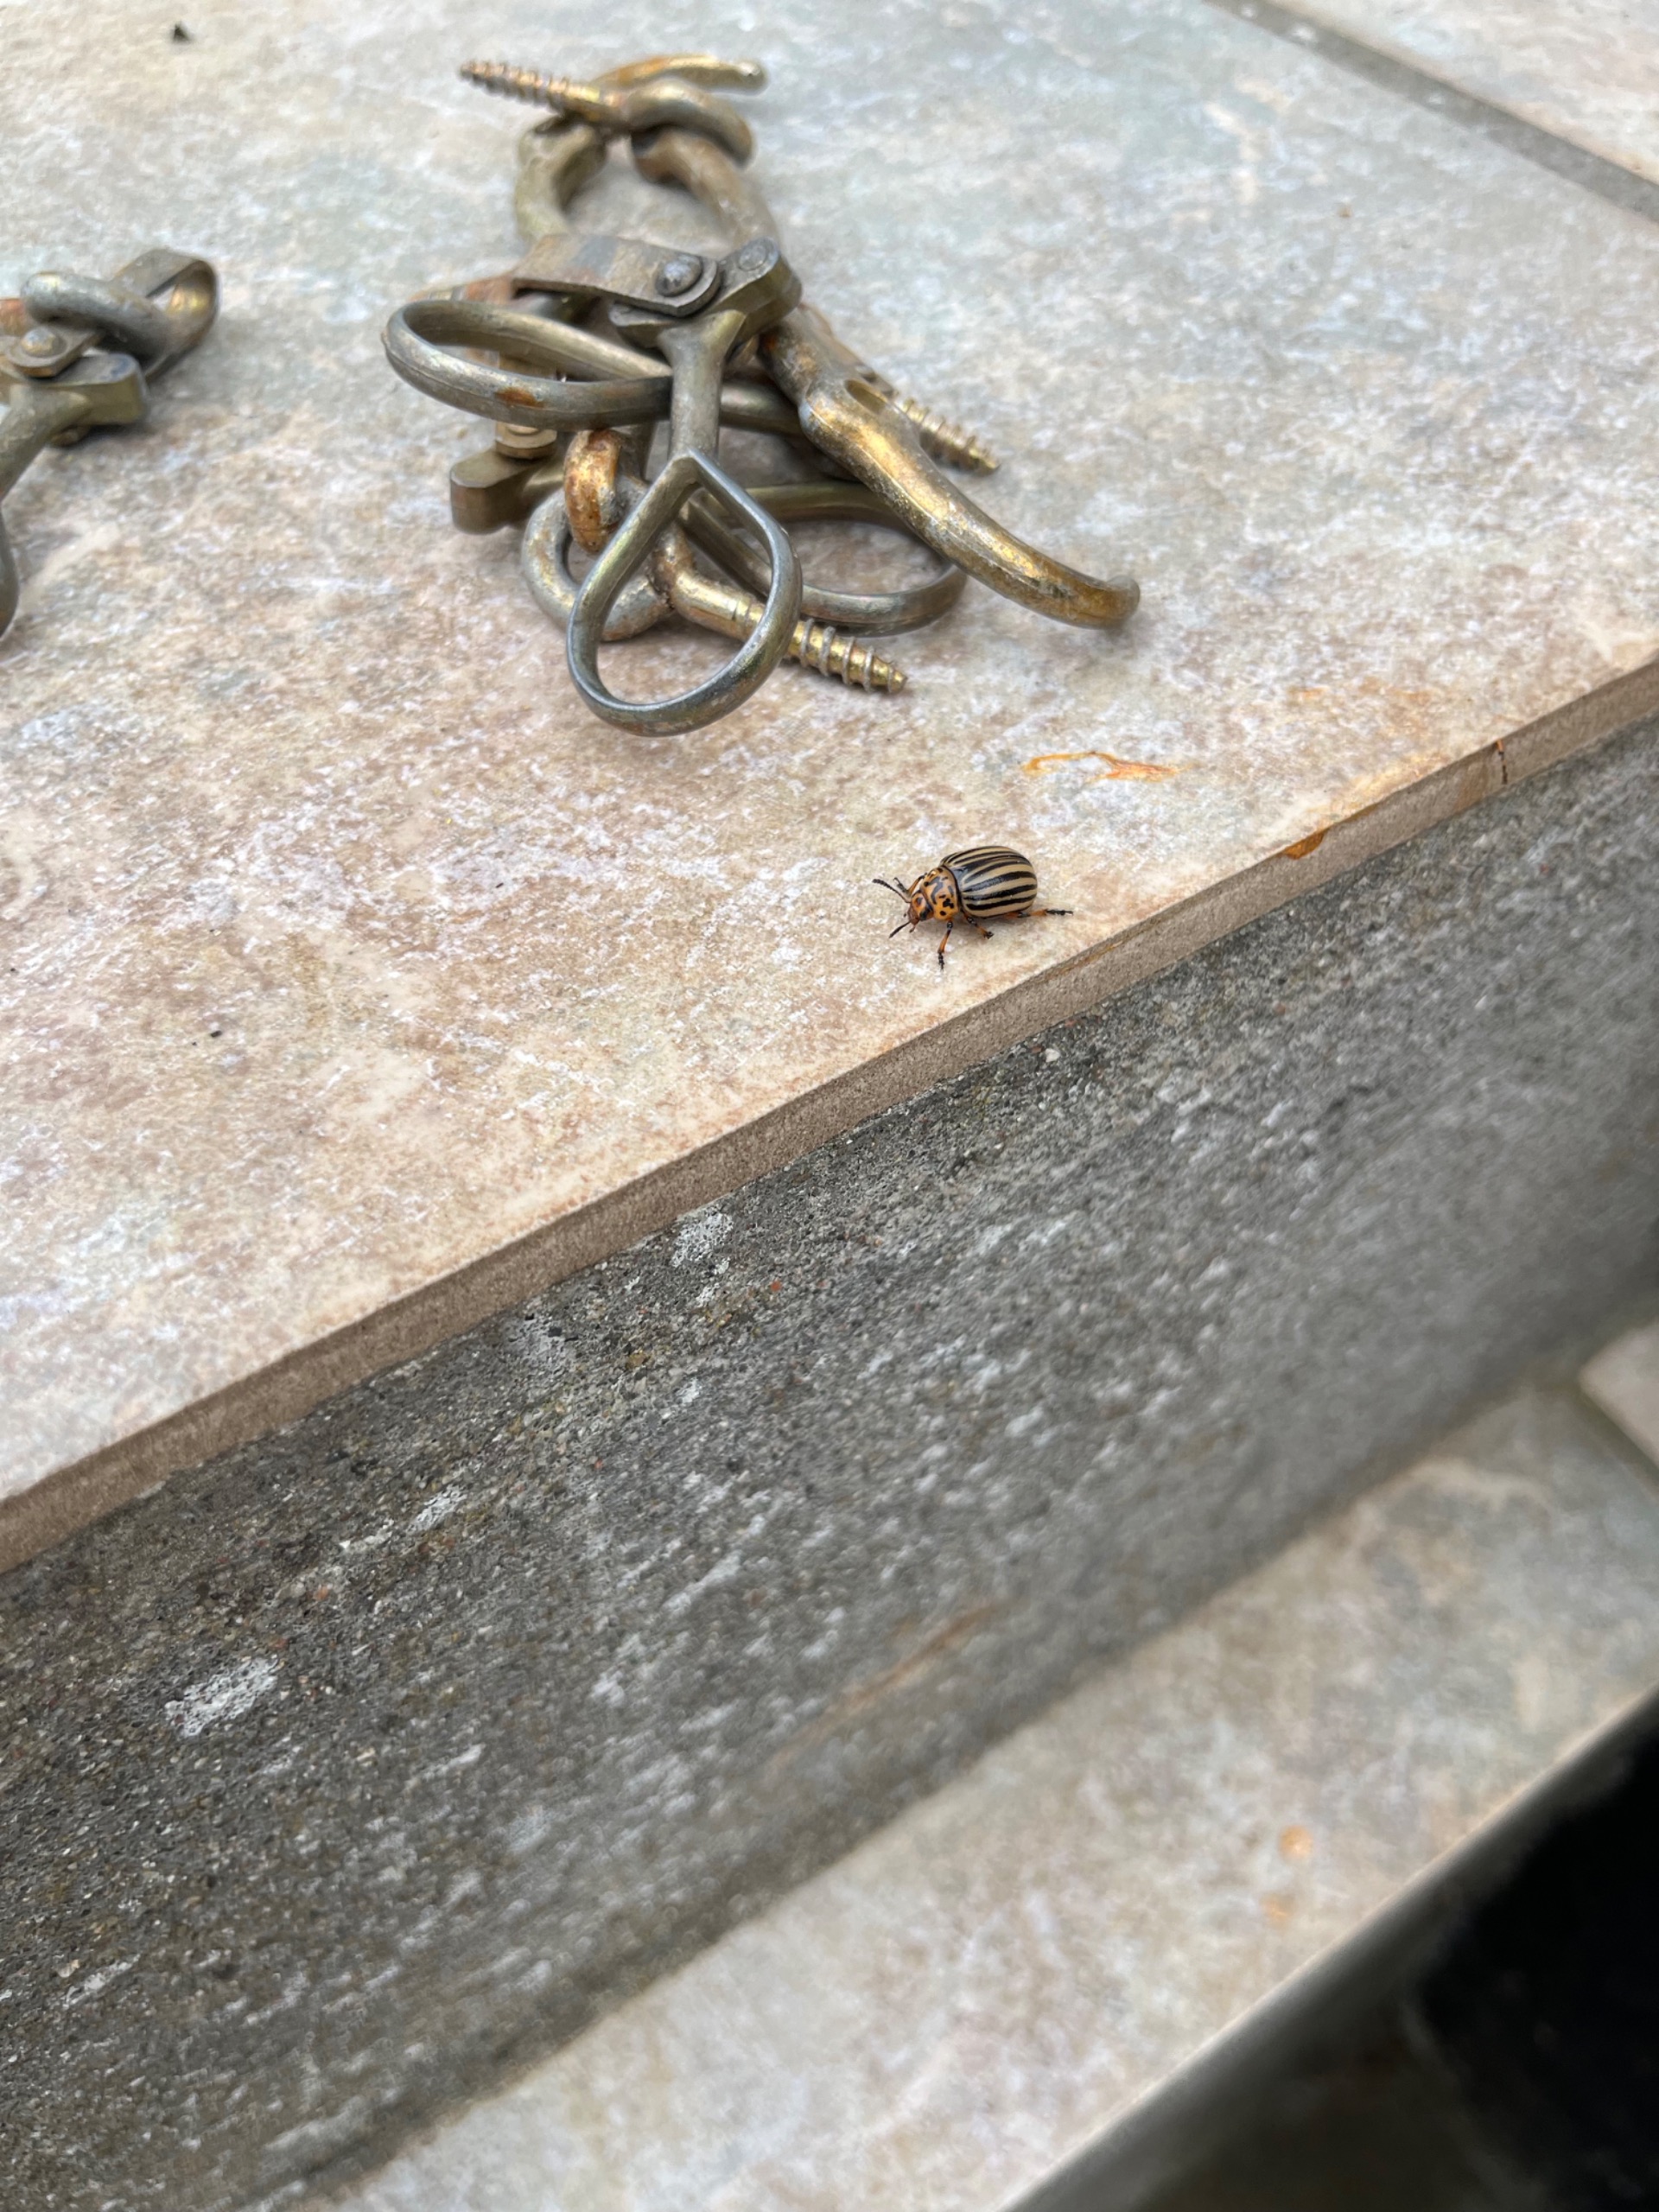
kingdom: Animalia
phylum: Arthropoda
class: Insecta
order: Coleoptera
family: Chrysomelidae
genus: Leptinotarsa
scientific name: Leptinotarsa decemlineata
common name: Coloradobille
